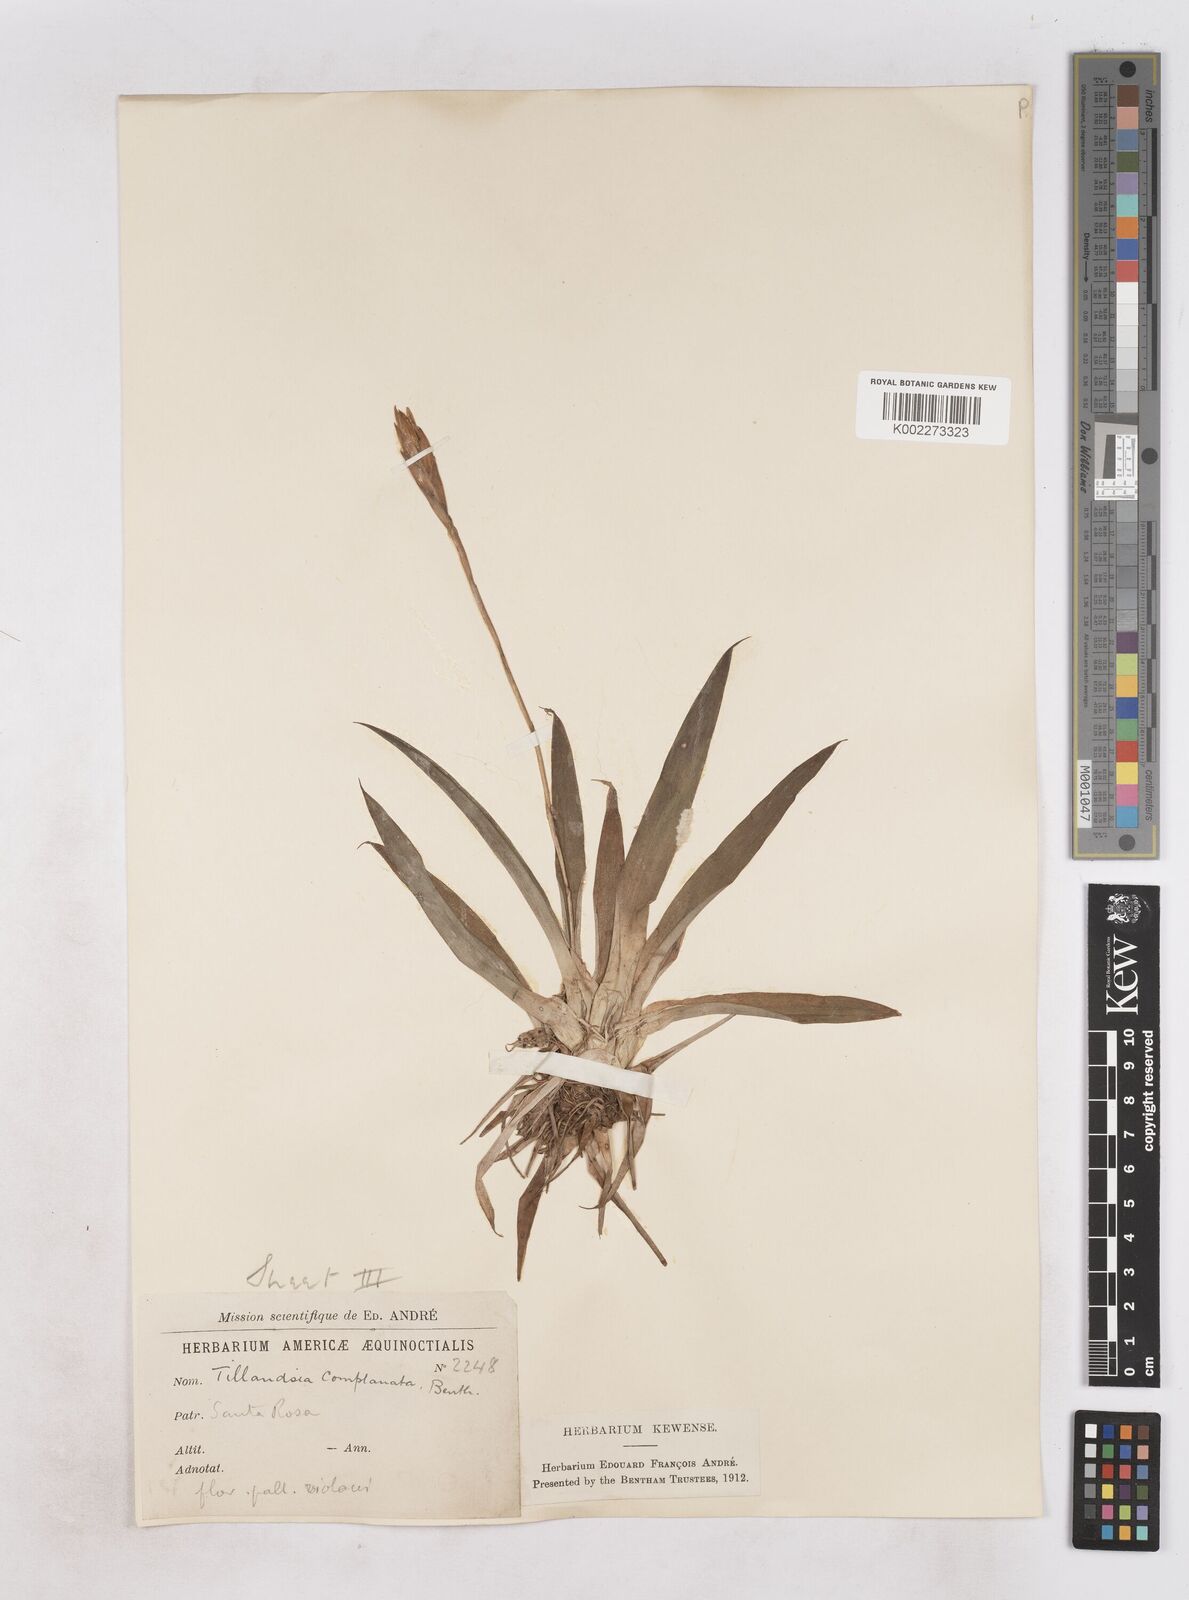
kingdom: Plantae
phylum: Tracheophyta
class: Liliopsida
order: Poales
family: Bromeliaceae
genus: Tillandsia
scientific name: Tillandsia complanata
